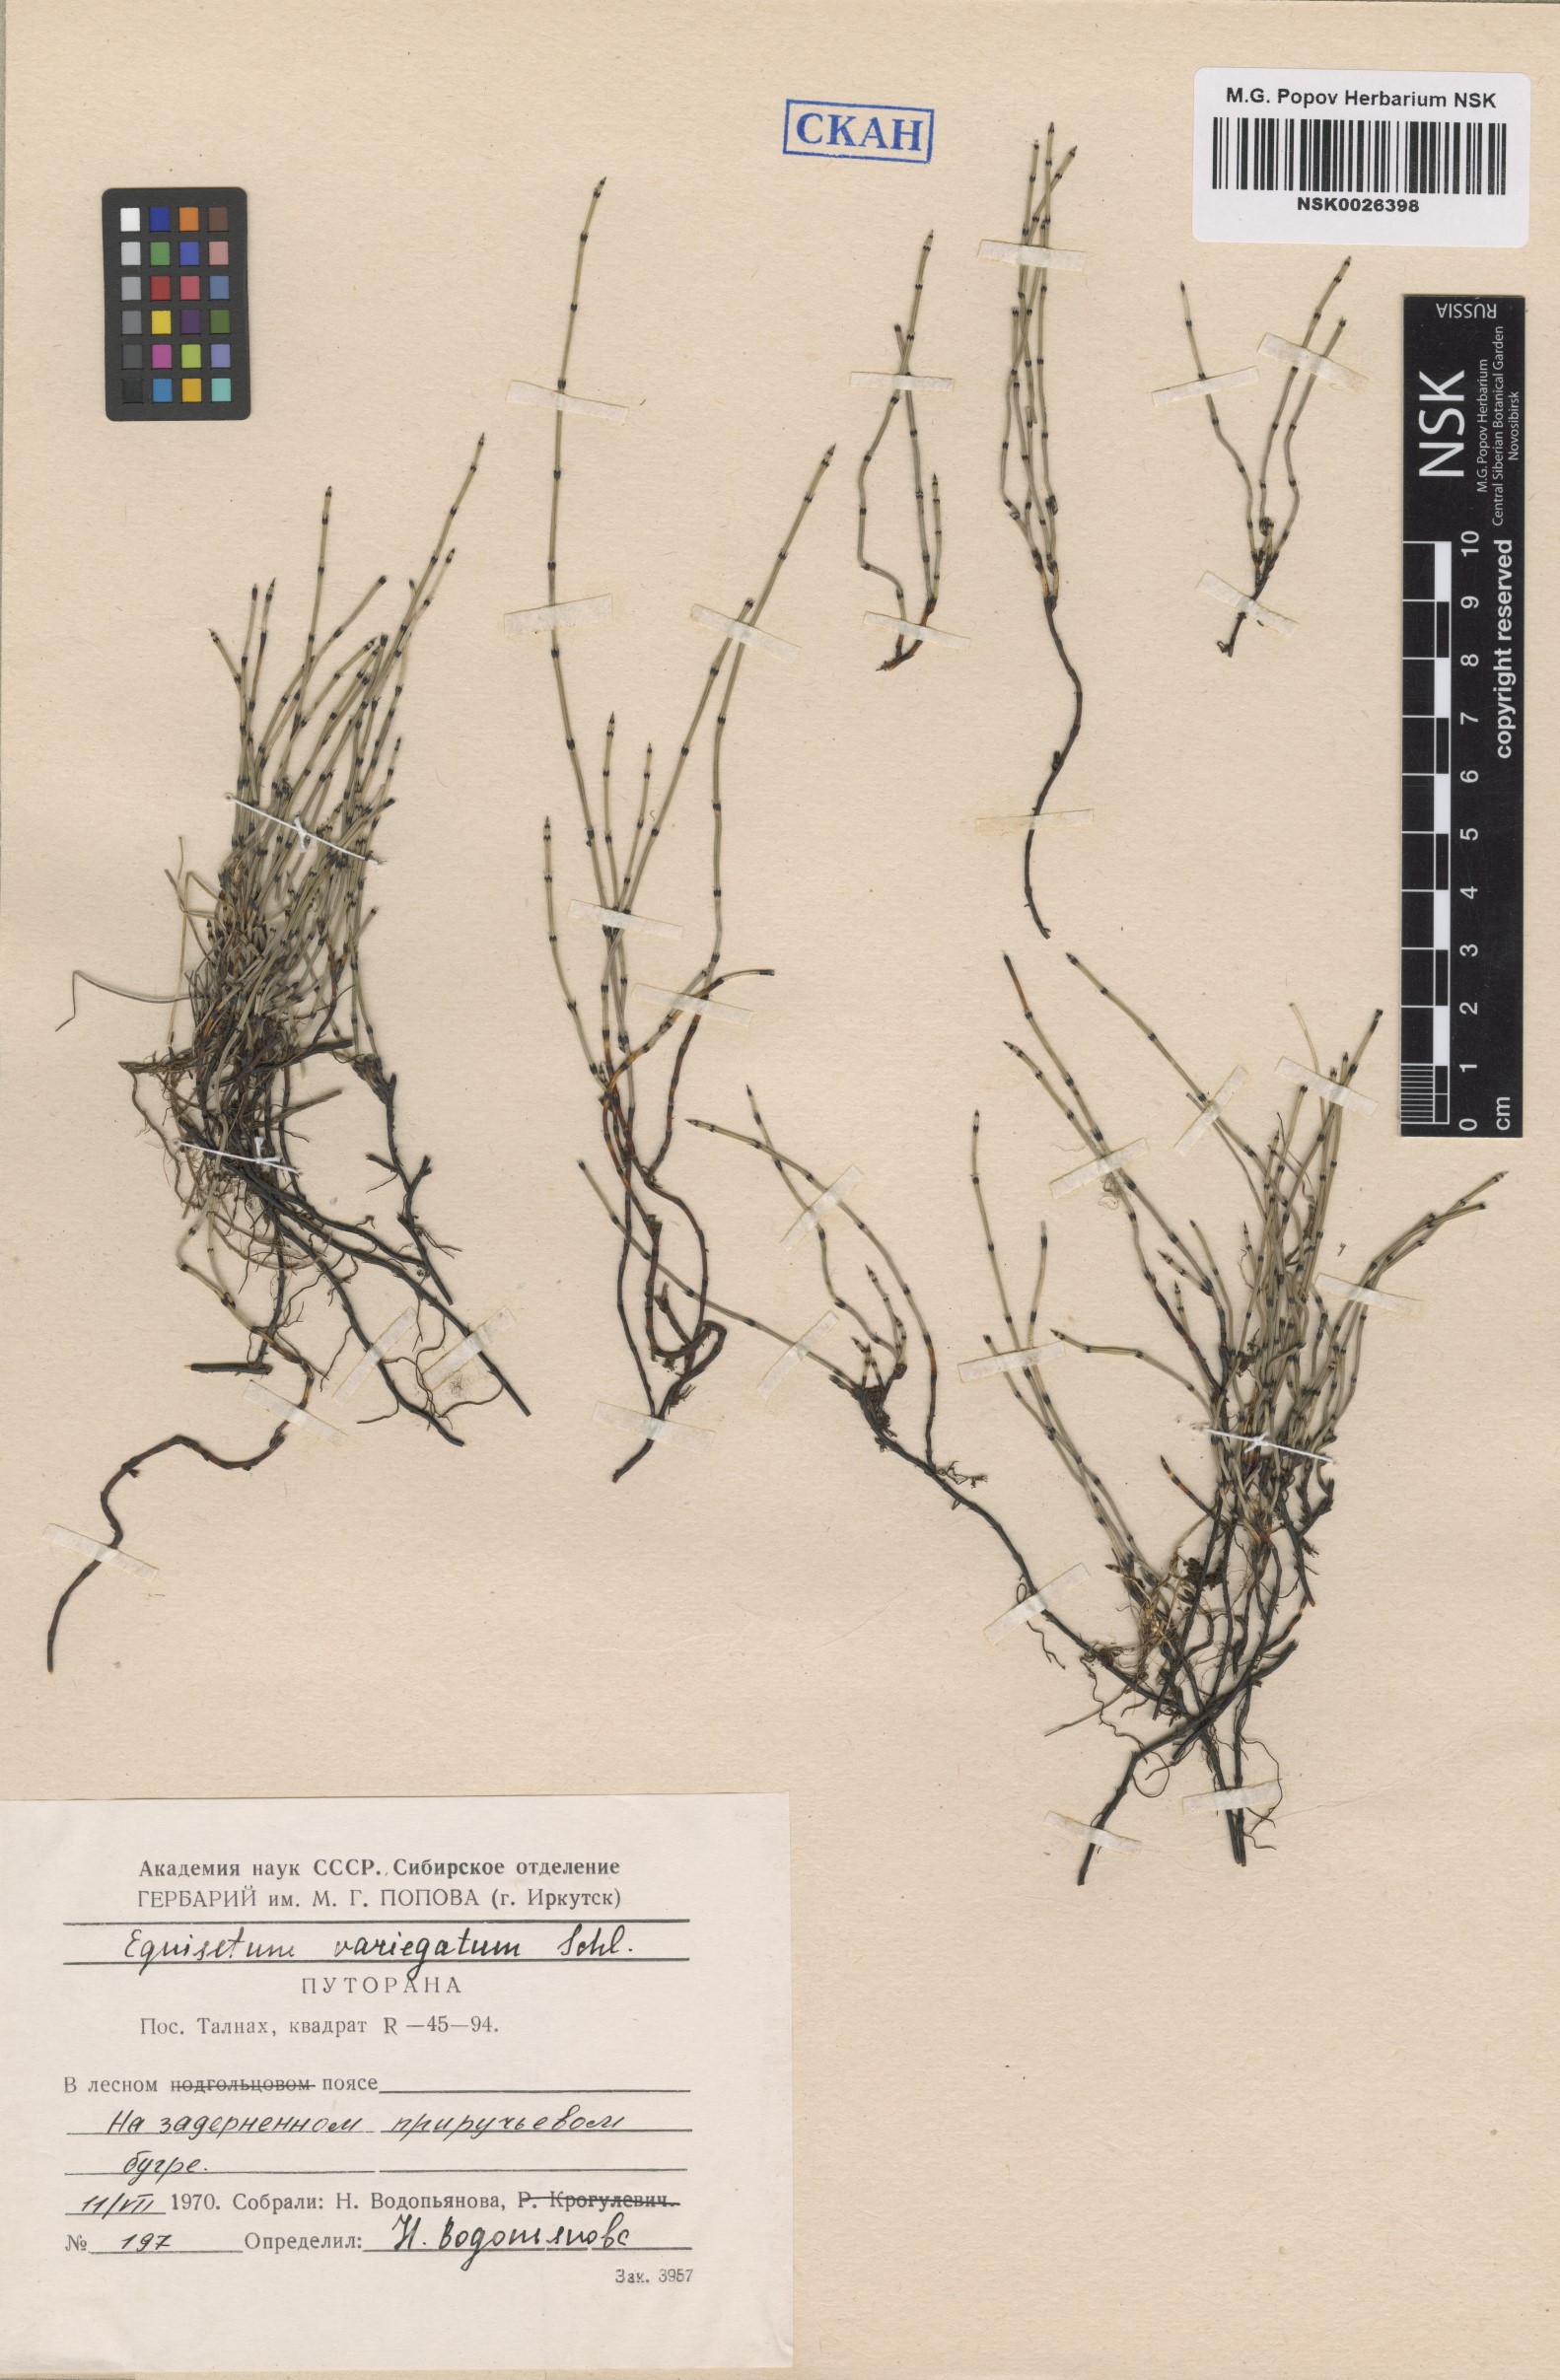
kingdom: Plantae
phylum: Tracheophyta
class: Polypodiopsida
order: Equisetales
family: Equisetaceae
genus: Equisetum
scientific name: Equisetum variegatum
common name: Variegated horsetail
